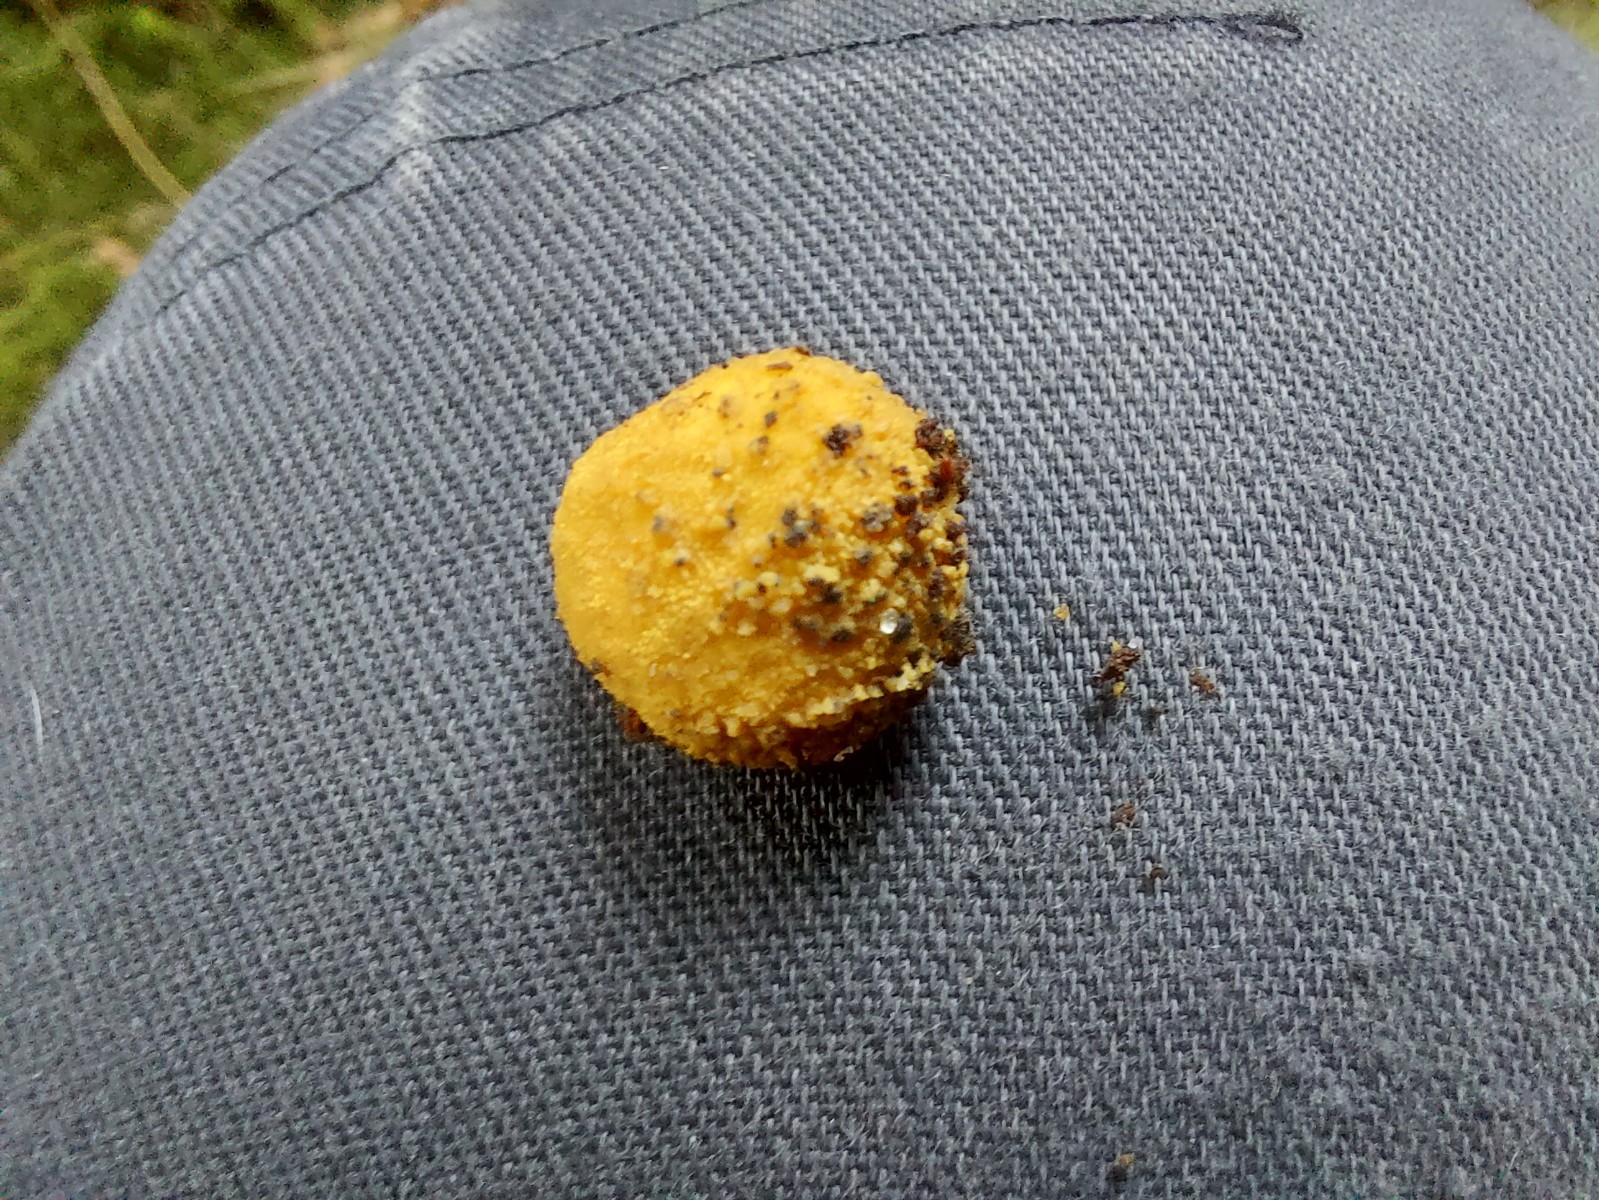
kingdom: Fungi
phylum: Ascomycota
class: Eurotiomycetes
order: Eurotiales
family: Elaphomycetaceae
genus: Elaphomyces
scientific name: Elaphomyces granulatus
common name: grynet hjortetrøffel
